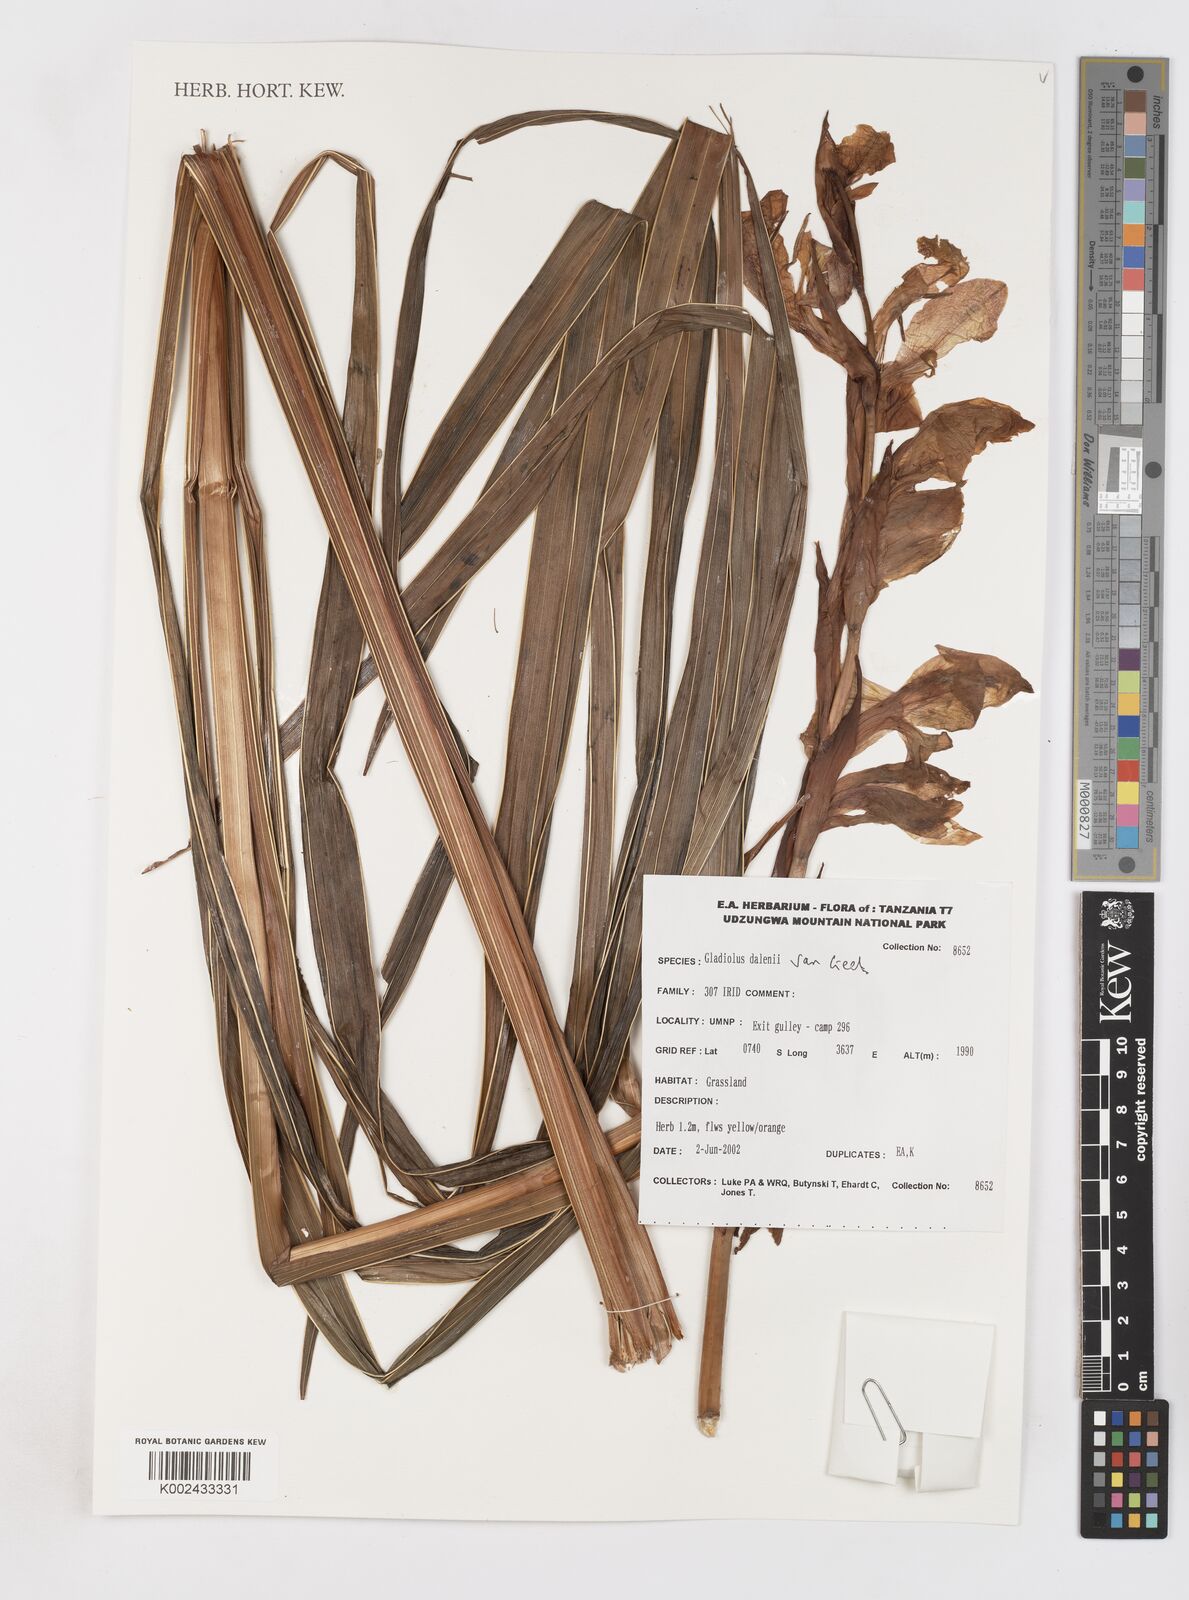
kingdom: Plantae
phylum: Tracheophyta
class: Liliopsida
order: Asparagales
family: Iridaceae
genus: Gladiolus
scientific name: Gladiolus dalenii
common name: Cornflag
